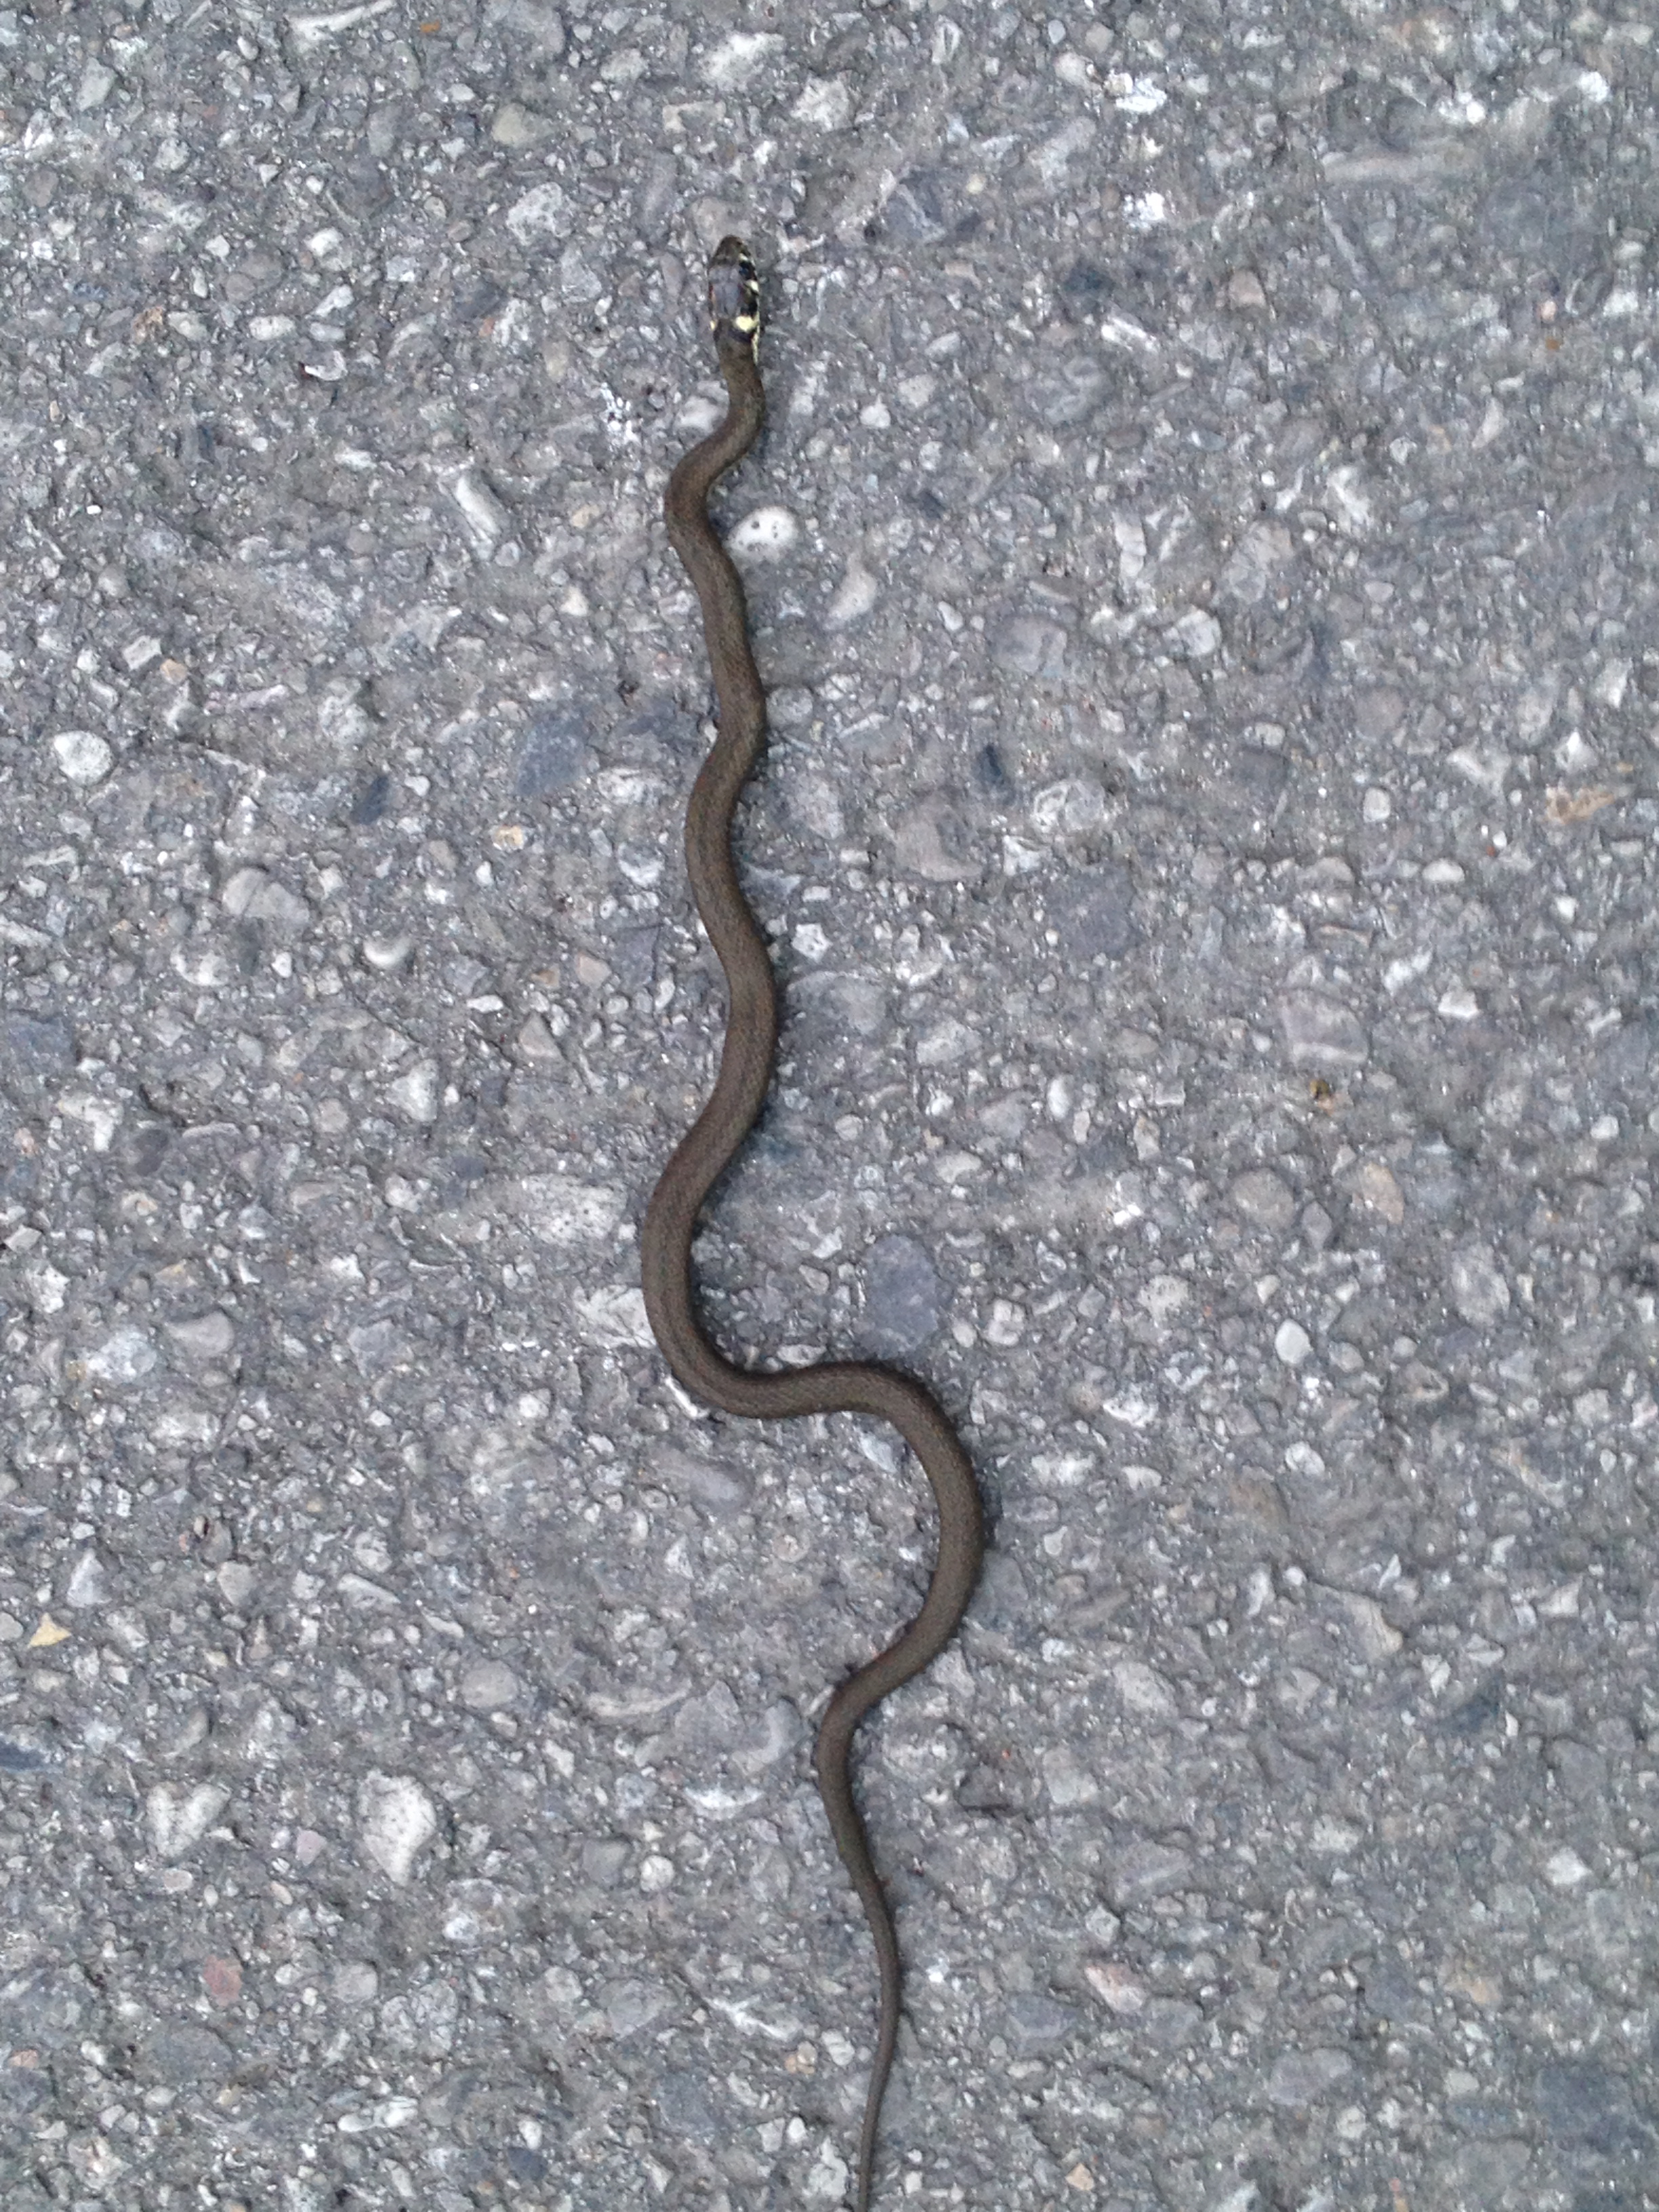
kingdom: Animalia
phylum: Chordata
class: Squamata
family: Colubridae
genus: Natrix
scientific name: Natrix natrix
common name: Grass snake
